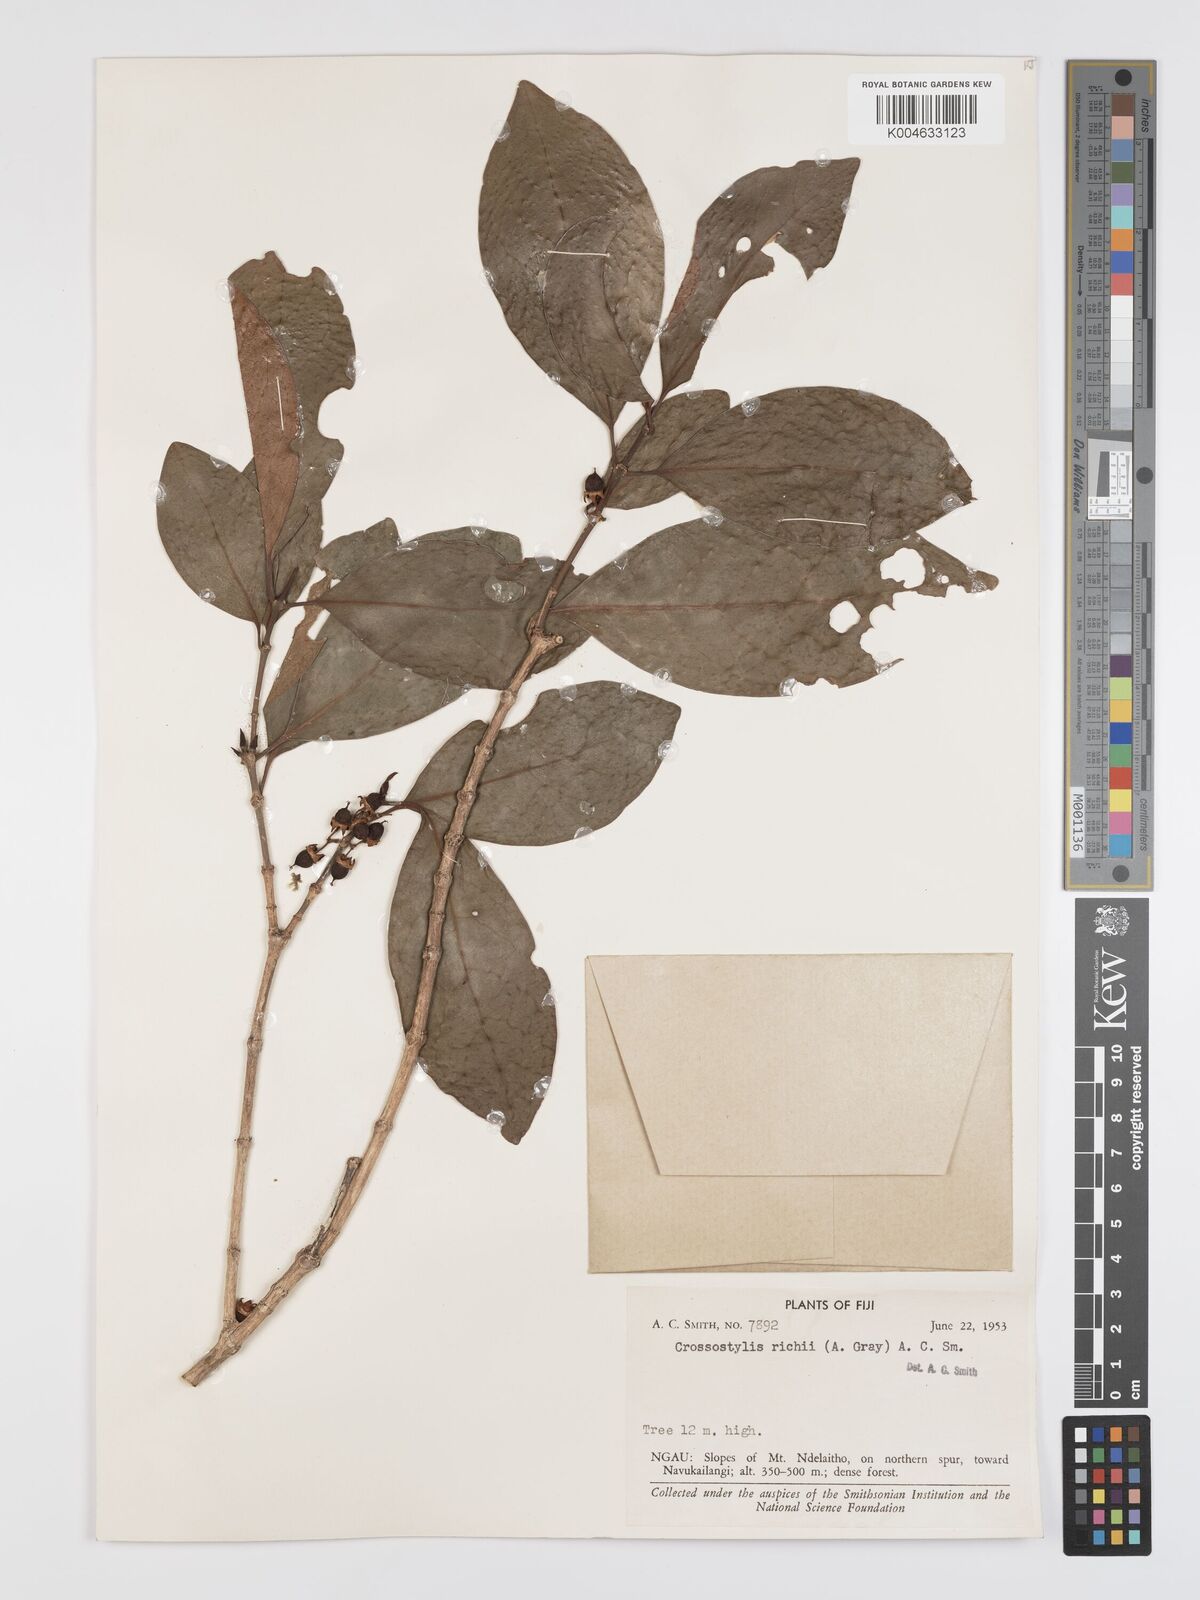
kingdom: Plantae
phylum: Tracheophyta
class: Magnoliopsida
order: Malpighiales
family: Rhizophoraceae
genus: Crossostylis
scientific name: Crossostylis richii
